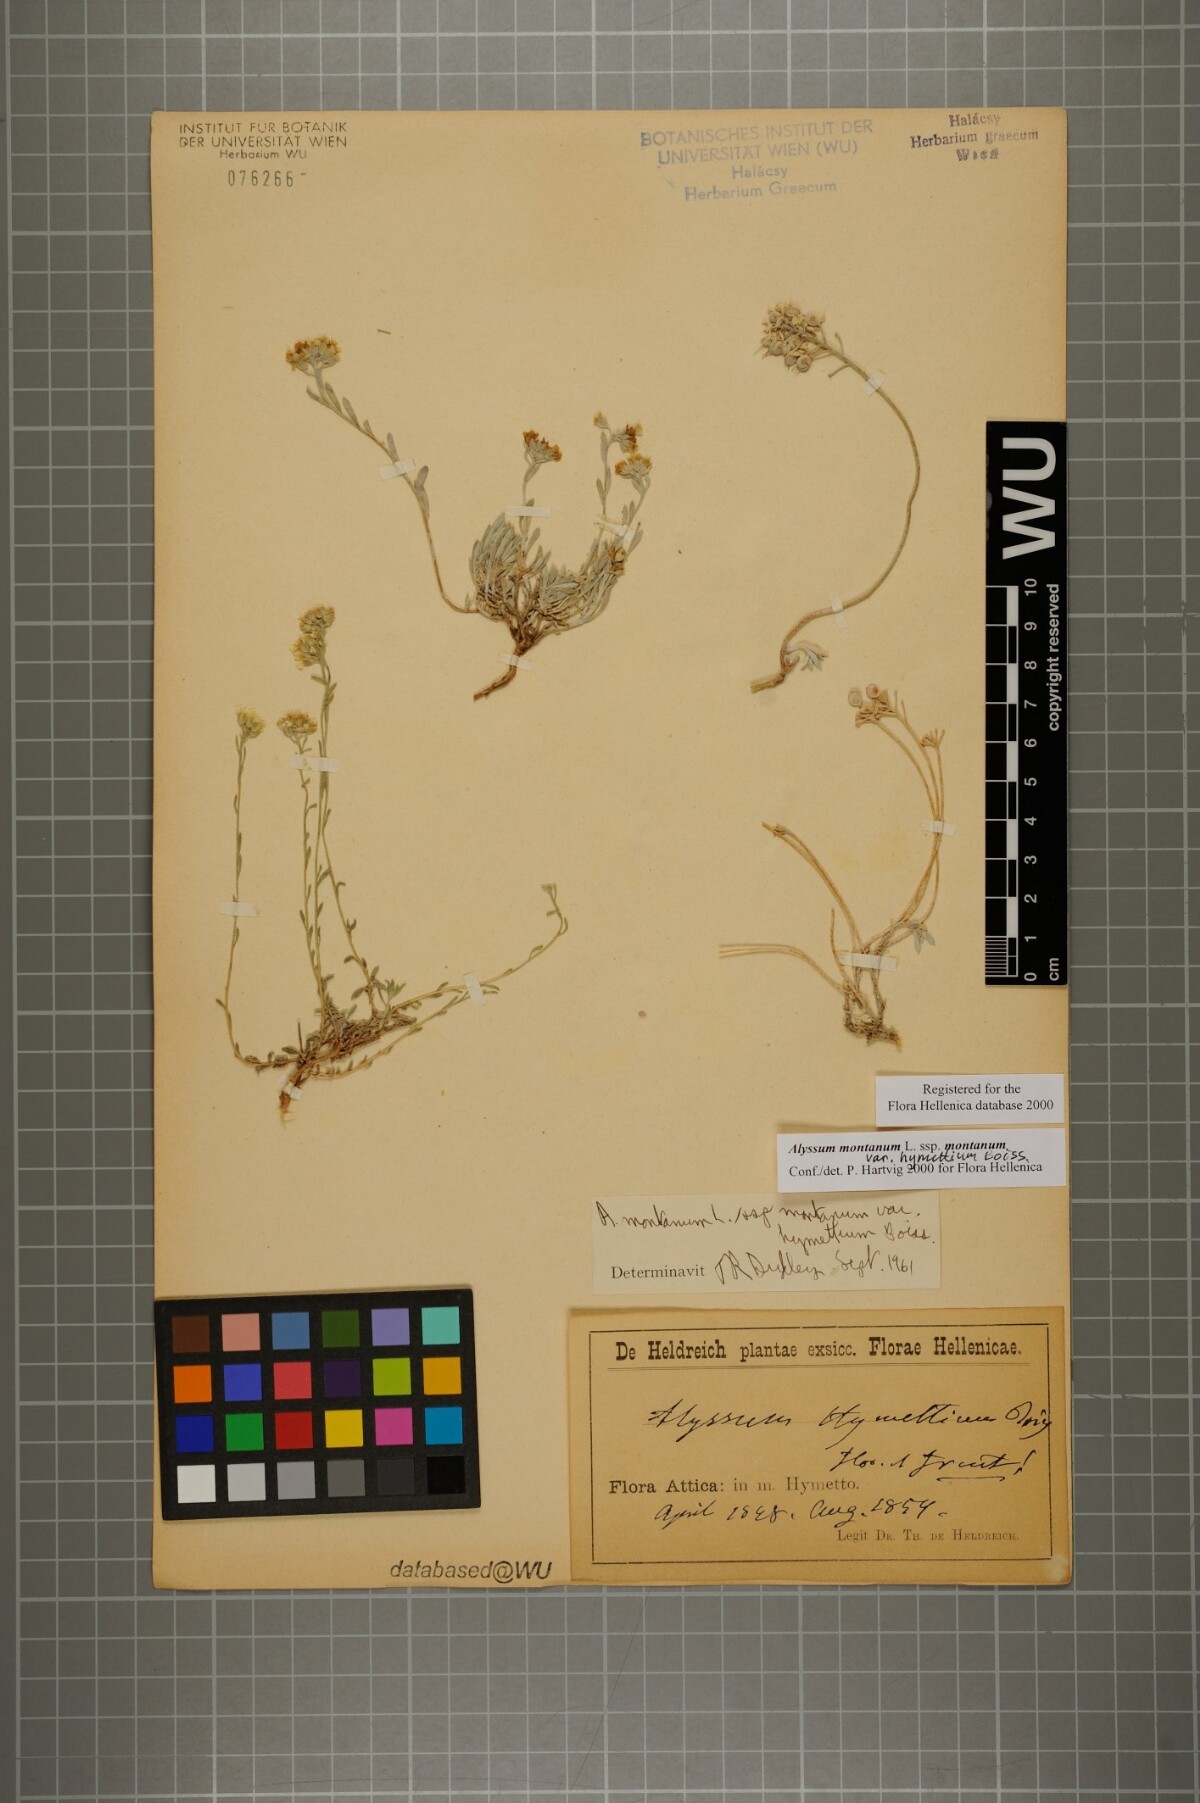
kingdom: Plantae
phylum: Tracheophyta
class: Magnoliopsida
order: Brassicales
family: Brassicaceae
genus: Alyssum
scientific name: Alyssum montanum
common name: Mountain alison
